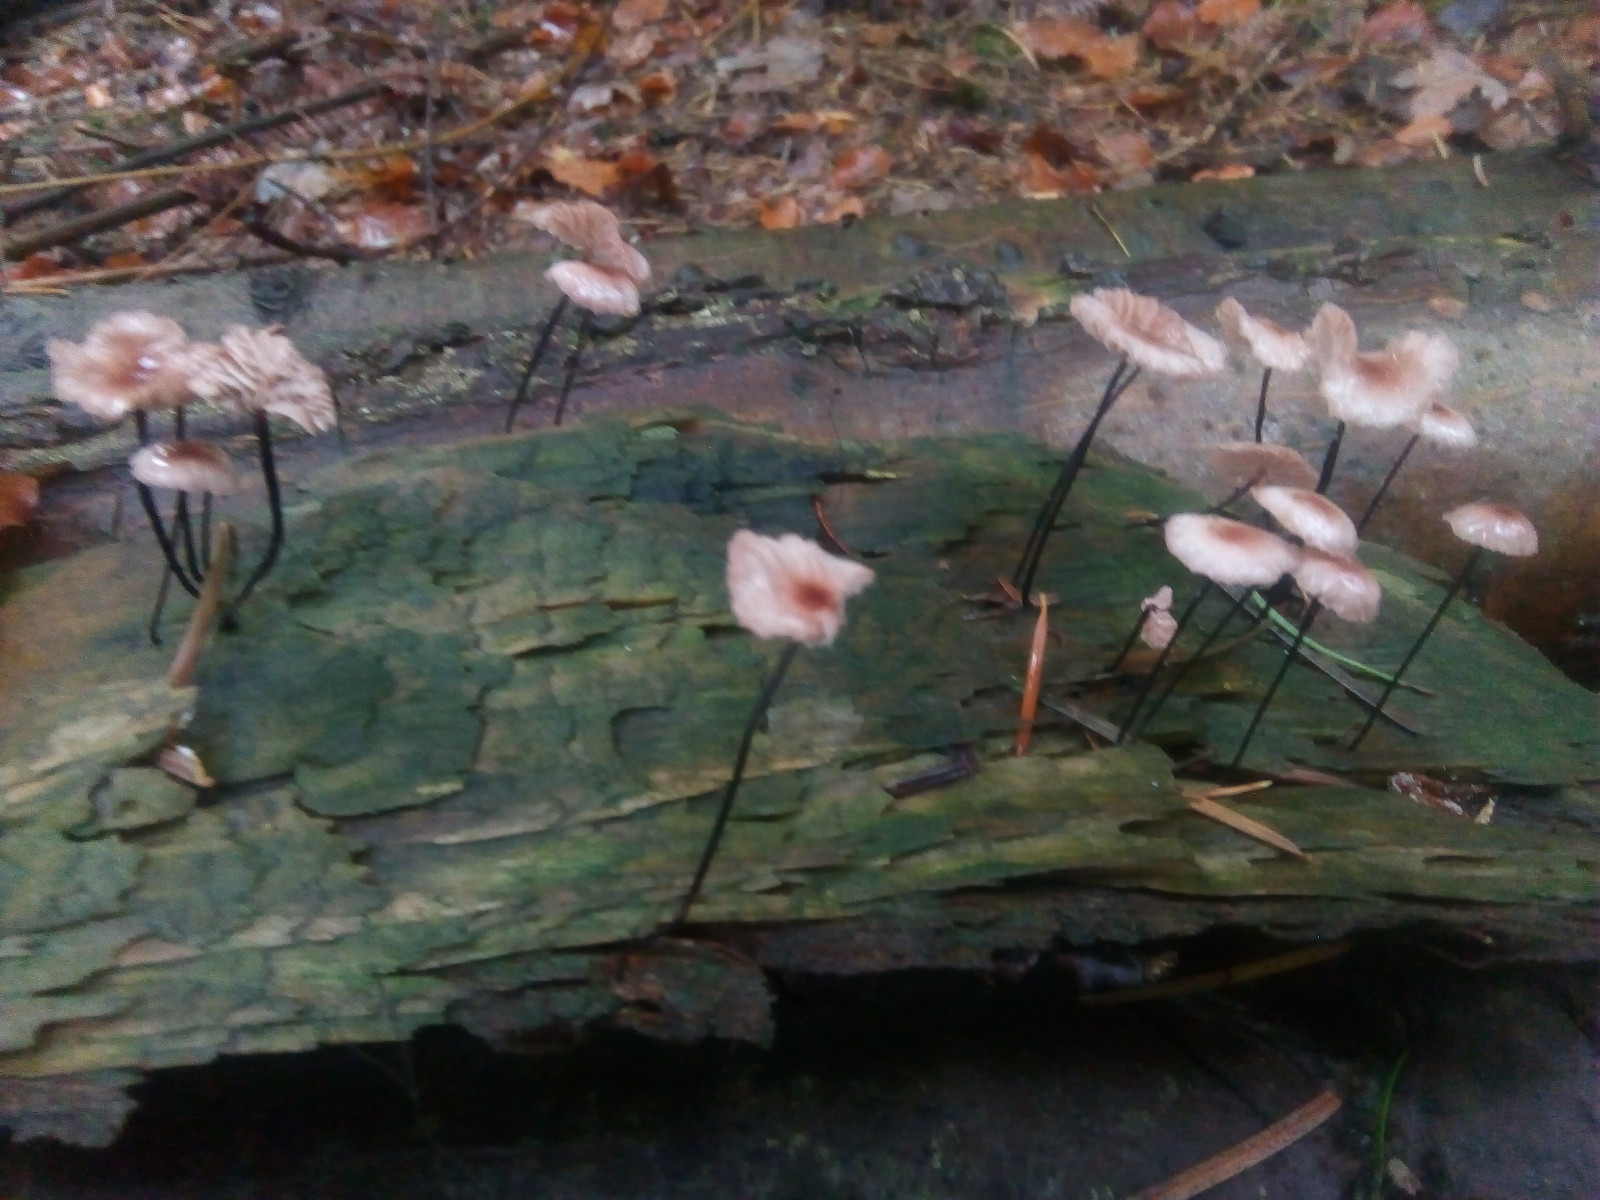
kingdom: Fungi
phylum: Basidiomycota
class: Agaricomycetes
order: Agaricales
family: Omphalotaceae
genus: Gymnopus
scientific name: Gymnopus androsaceus
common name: trådstokket fladhat
